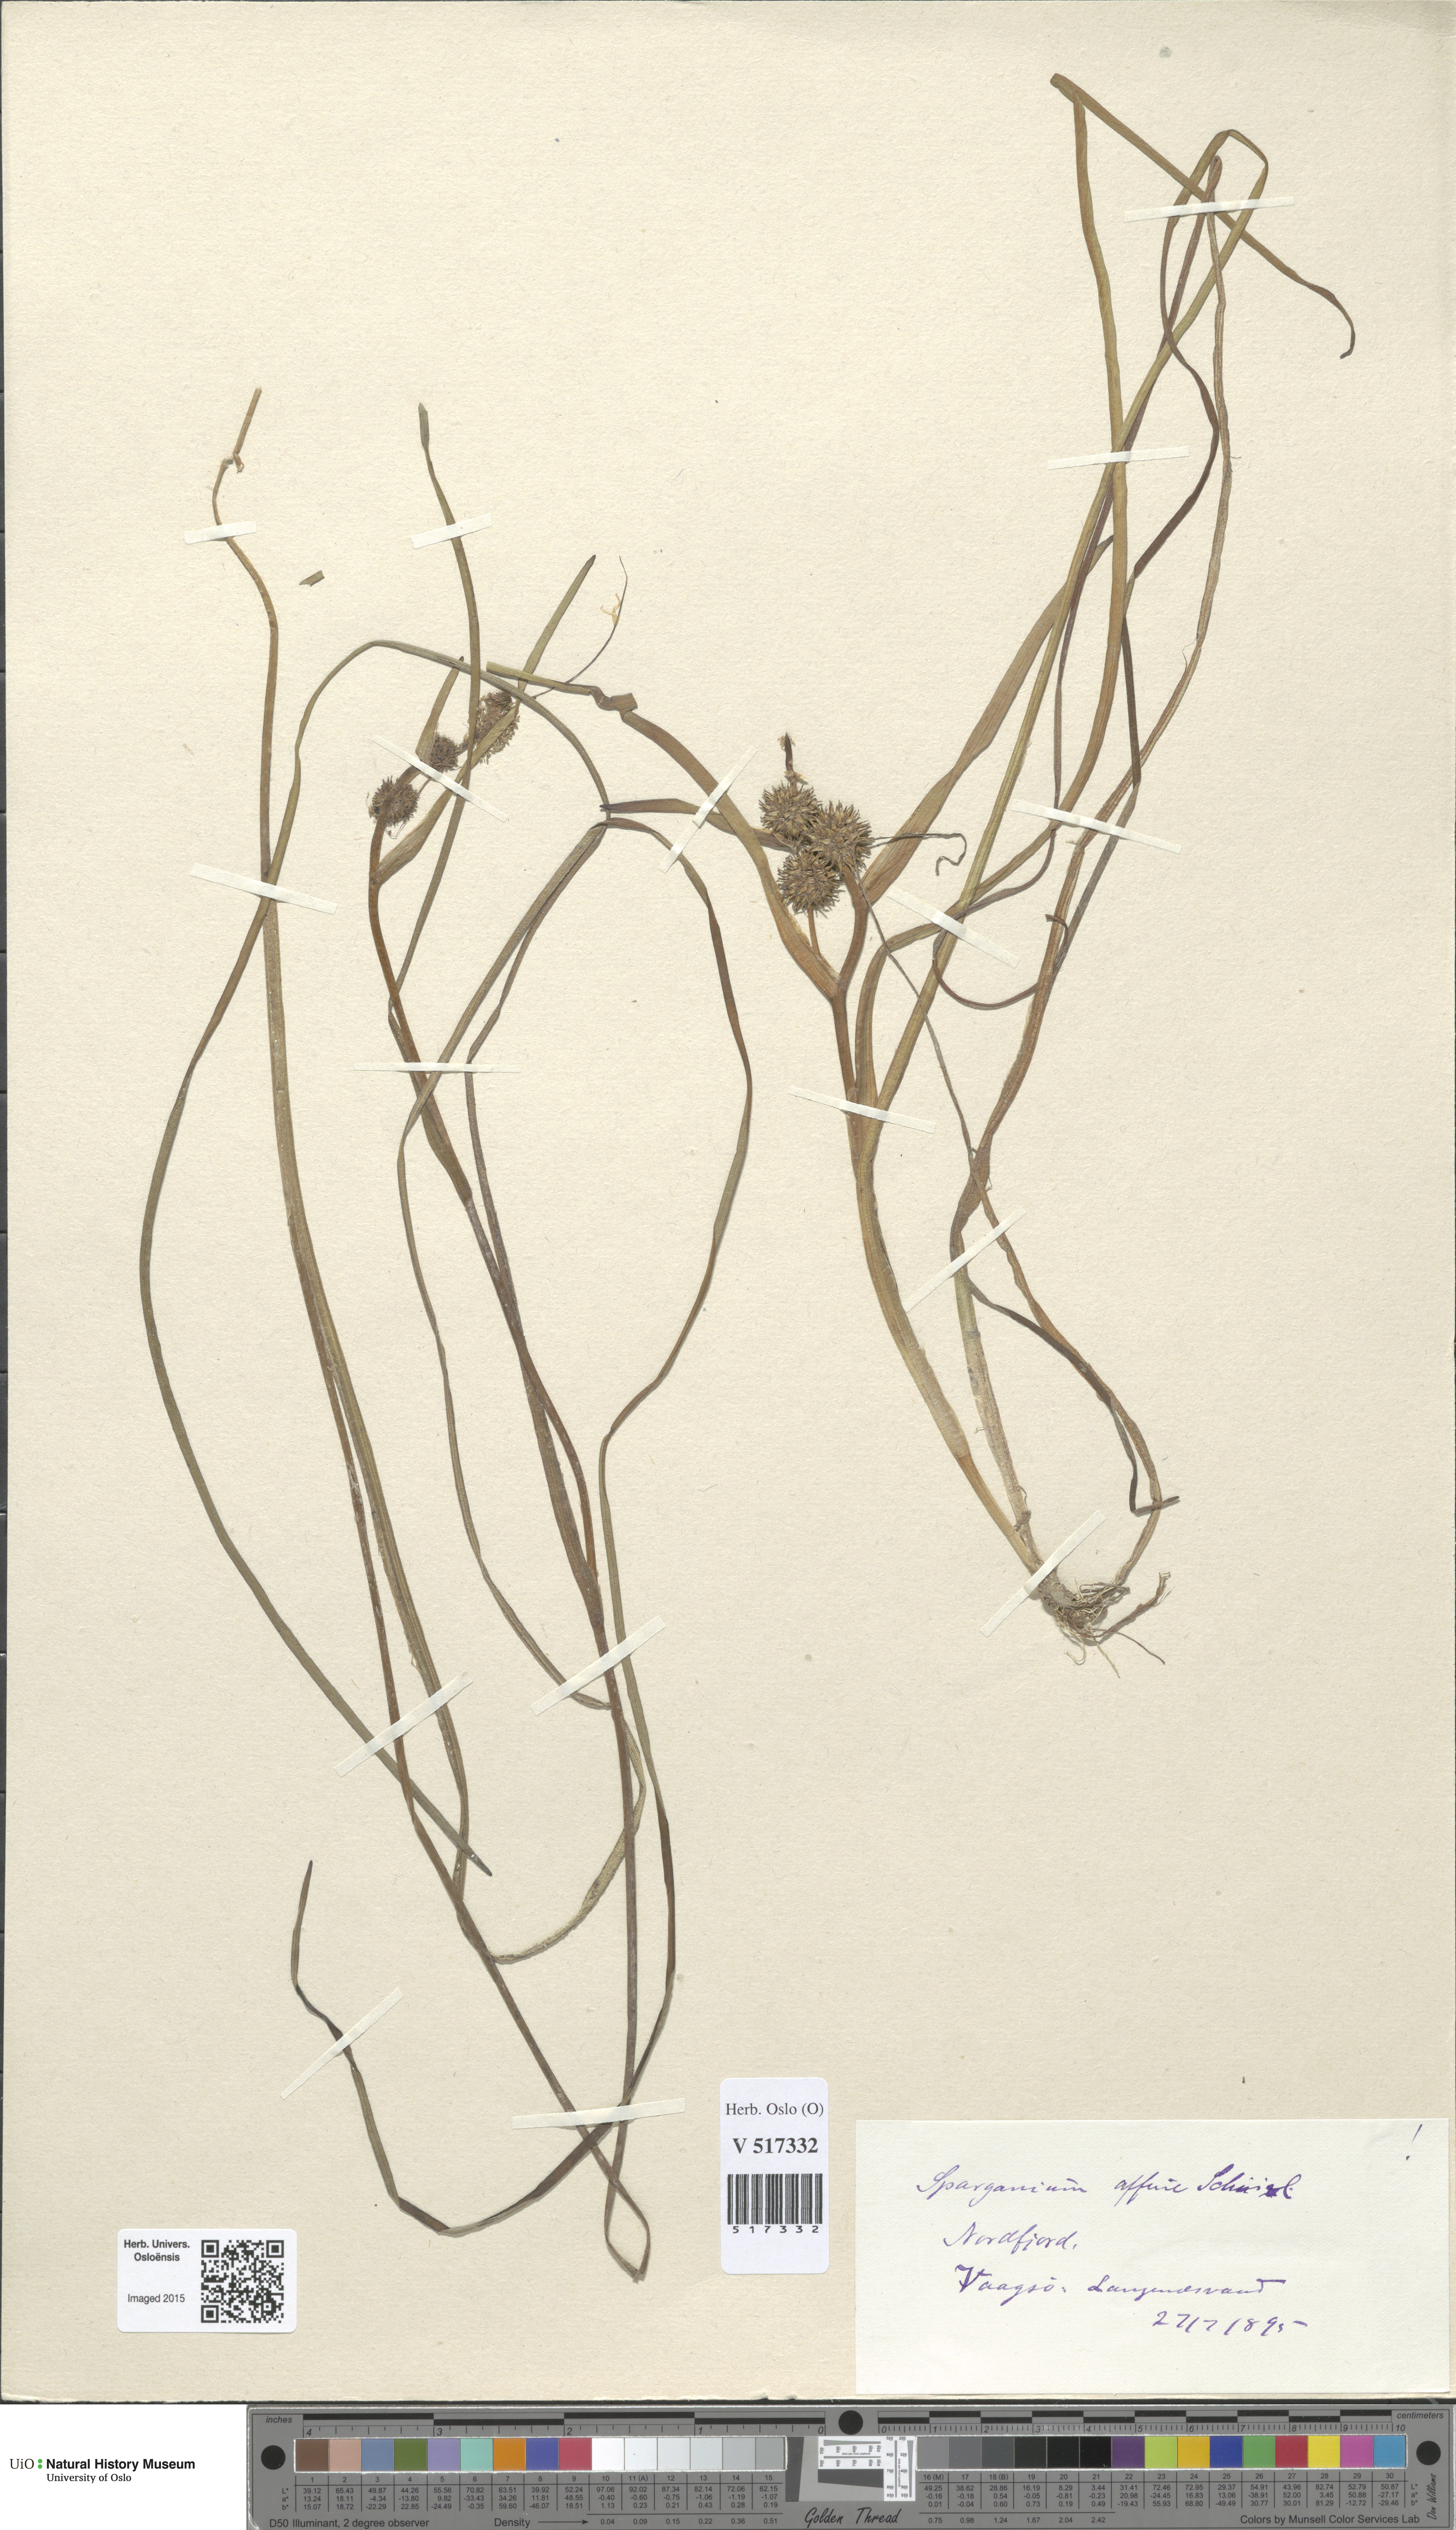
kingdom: Plantae
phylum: Tracheophyta
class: Liliopsida
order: Poales
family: Typhaceae
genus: Sparganium
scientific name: Sparganium angustifolium
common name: Floating bur-reed
